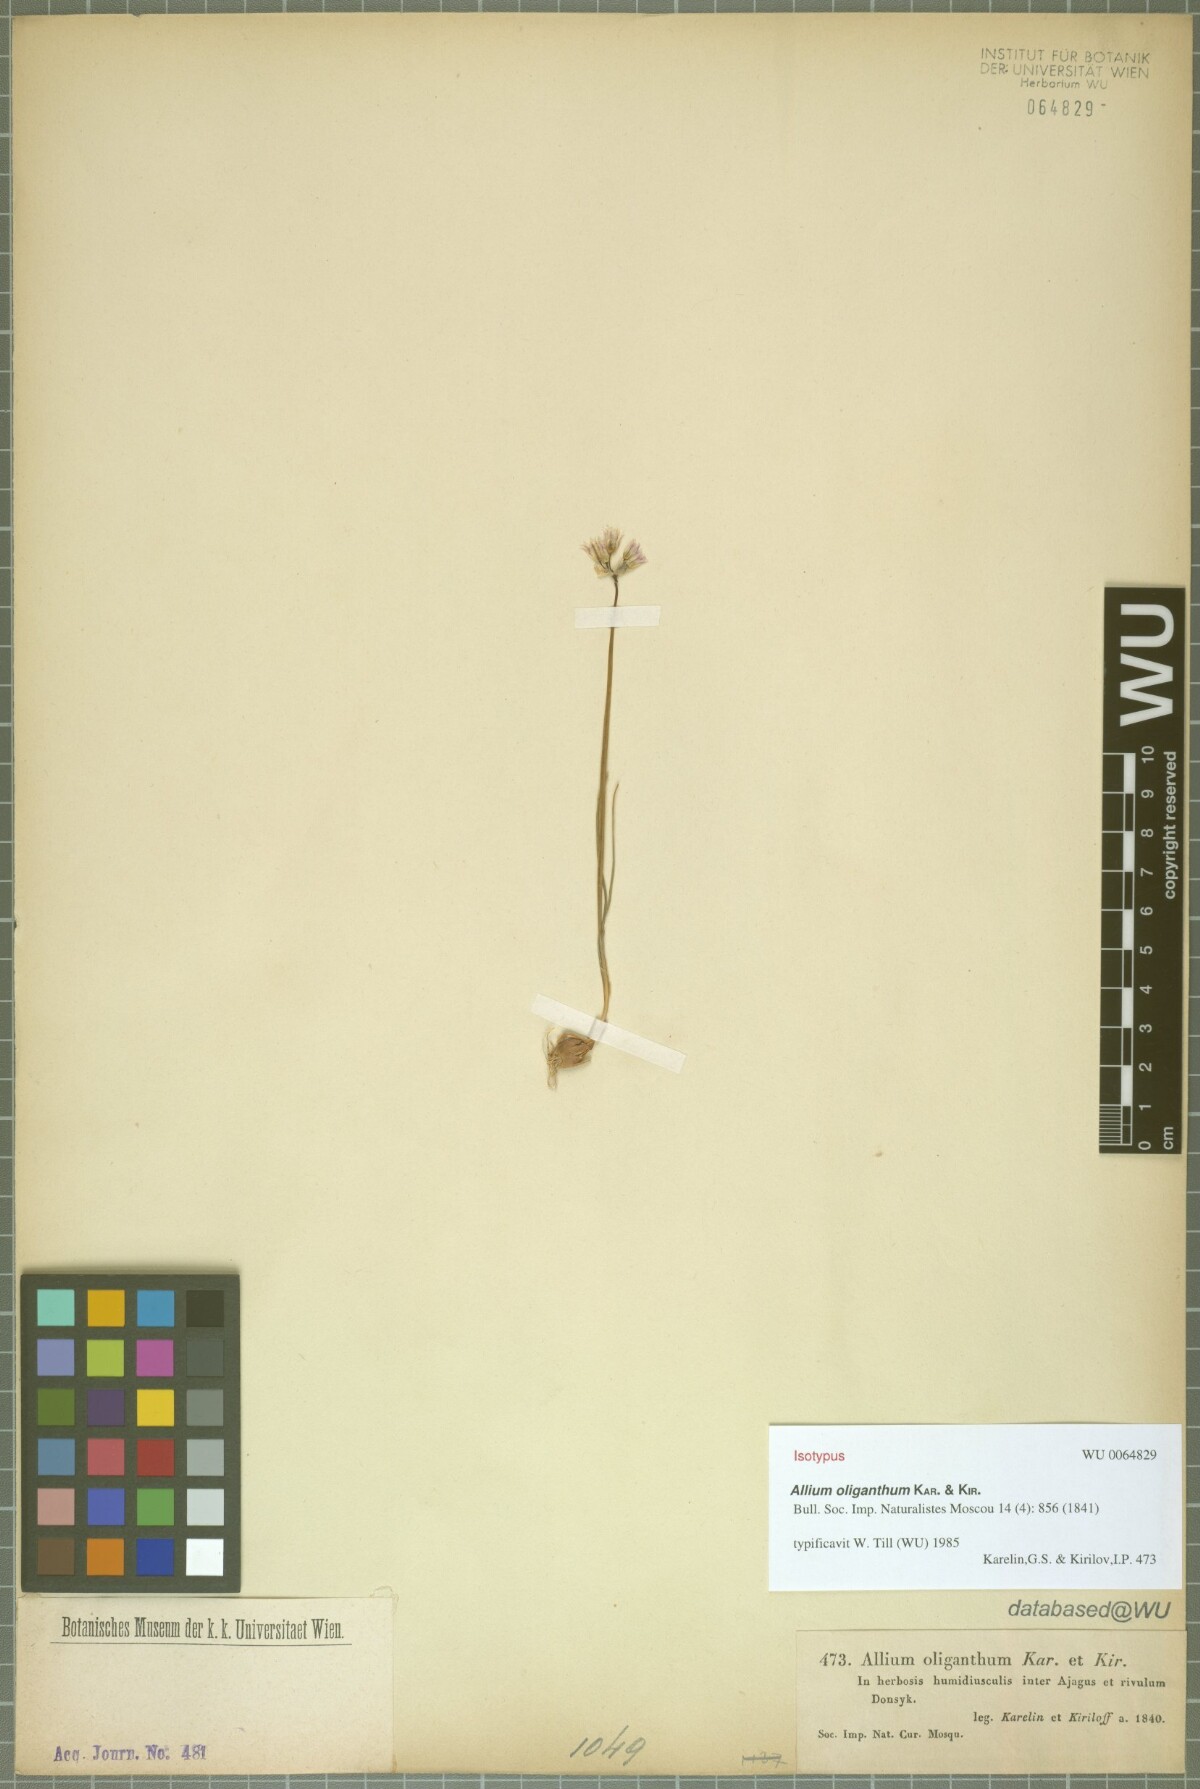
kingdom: Plantae
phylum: Tracheophyta
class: Liliopsida
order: Asparagales
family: Amaryllidaceae
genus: Allium
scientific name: Allium oliganthum
